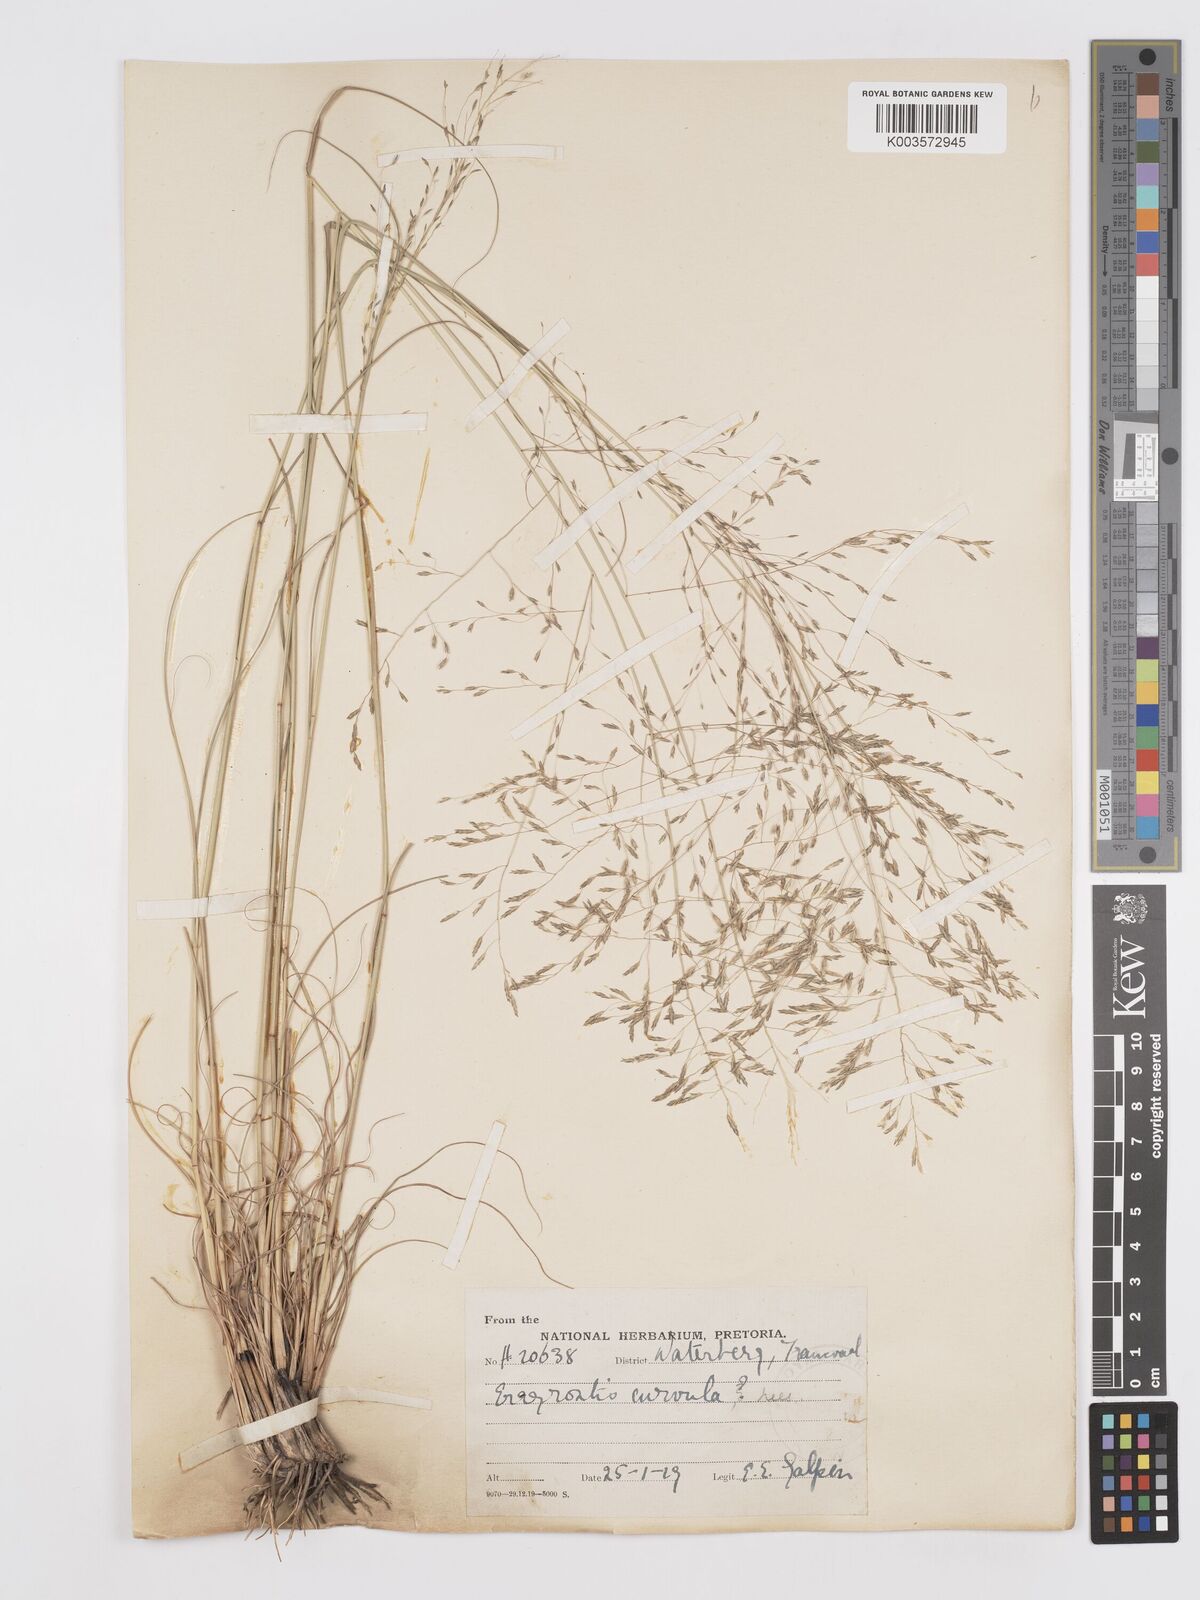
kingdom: Plantae
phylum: Tracheophyta
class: Liliopsida
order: Poales
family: Poaceae
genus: Eragrostis
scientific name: Eragrostis curvula
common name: African love-grass
